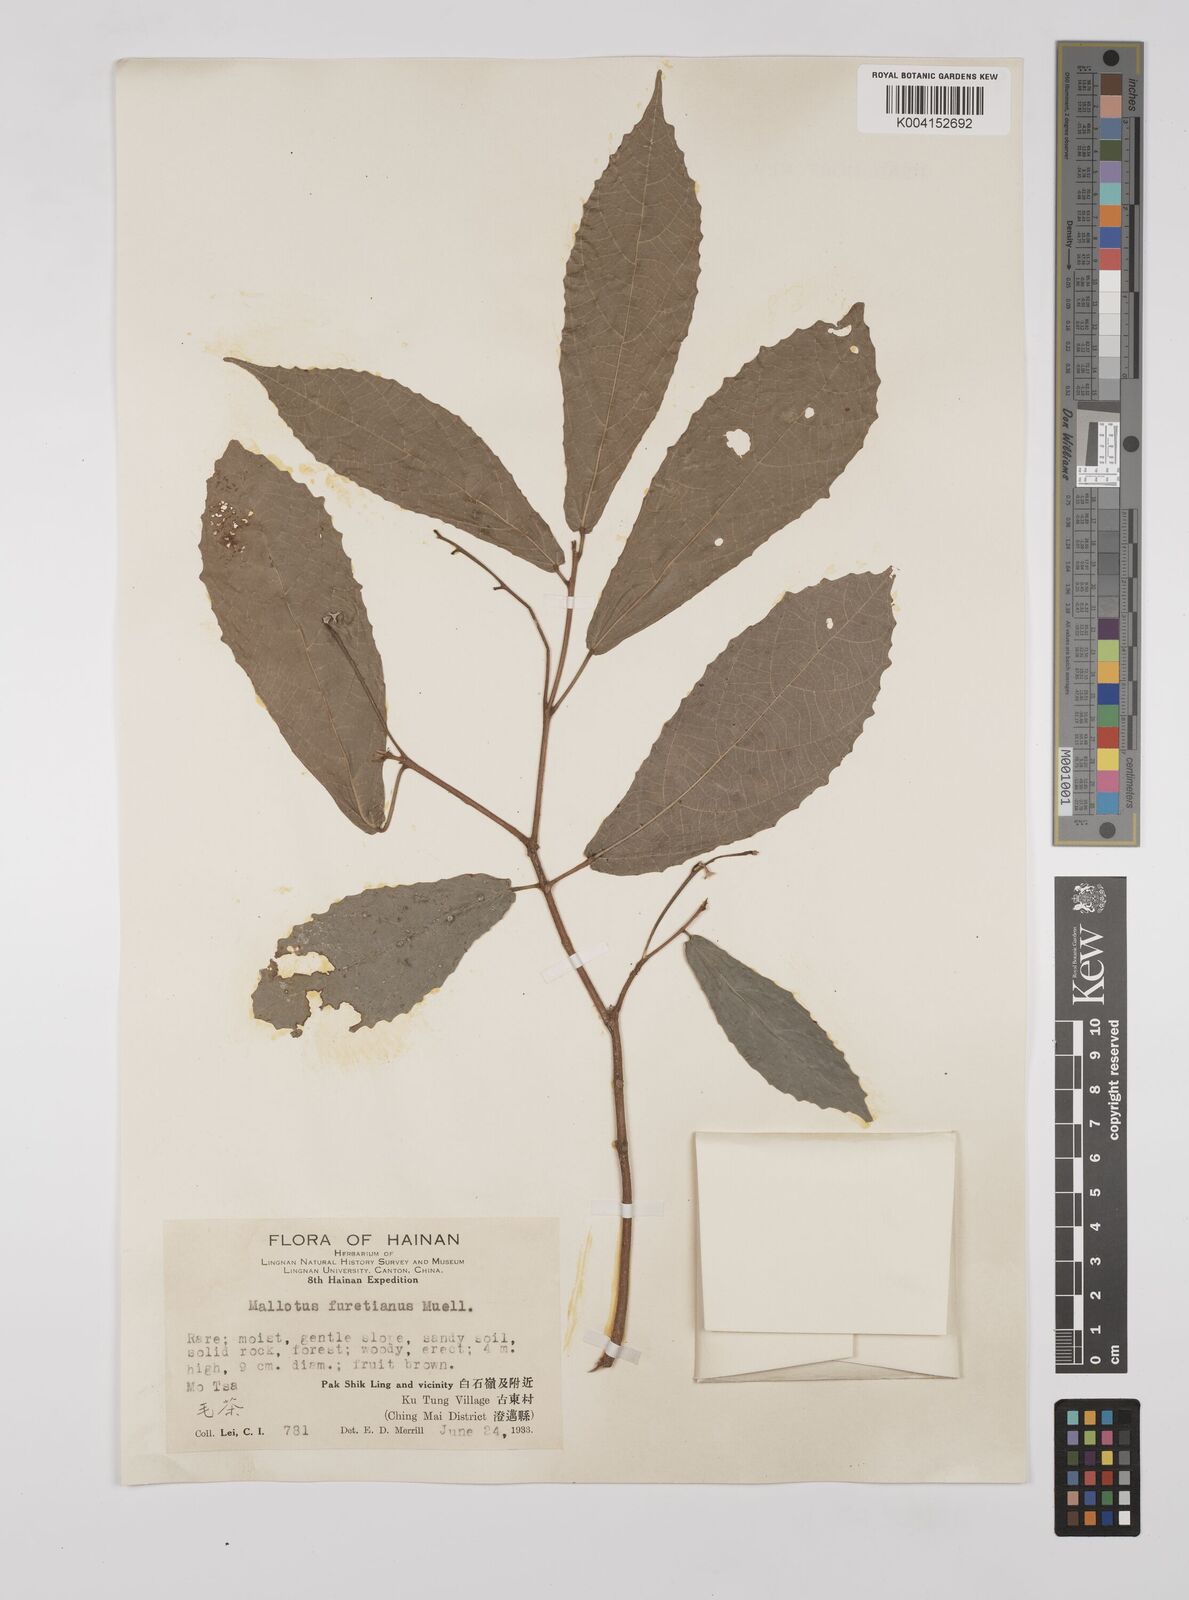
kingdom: Plantae
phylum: Tracheophyta
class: Magnoliopsida
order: Malpighiales
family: Euphorbiaceae
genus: Mallotus
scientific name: Mallotus peltatus
